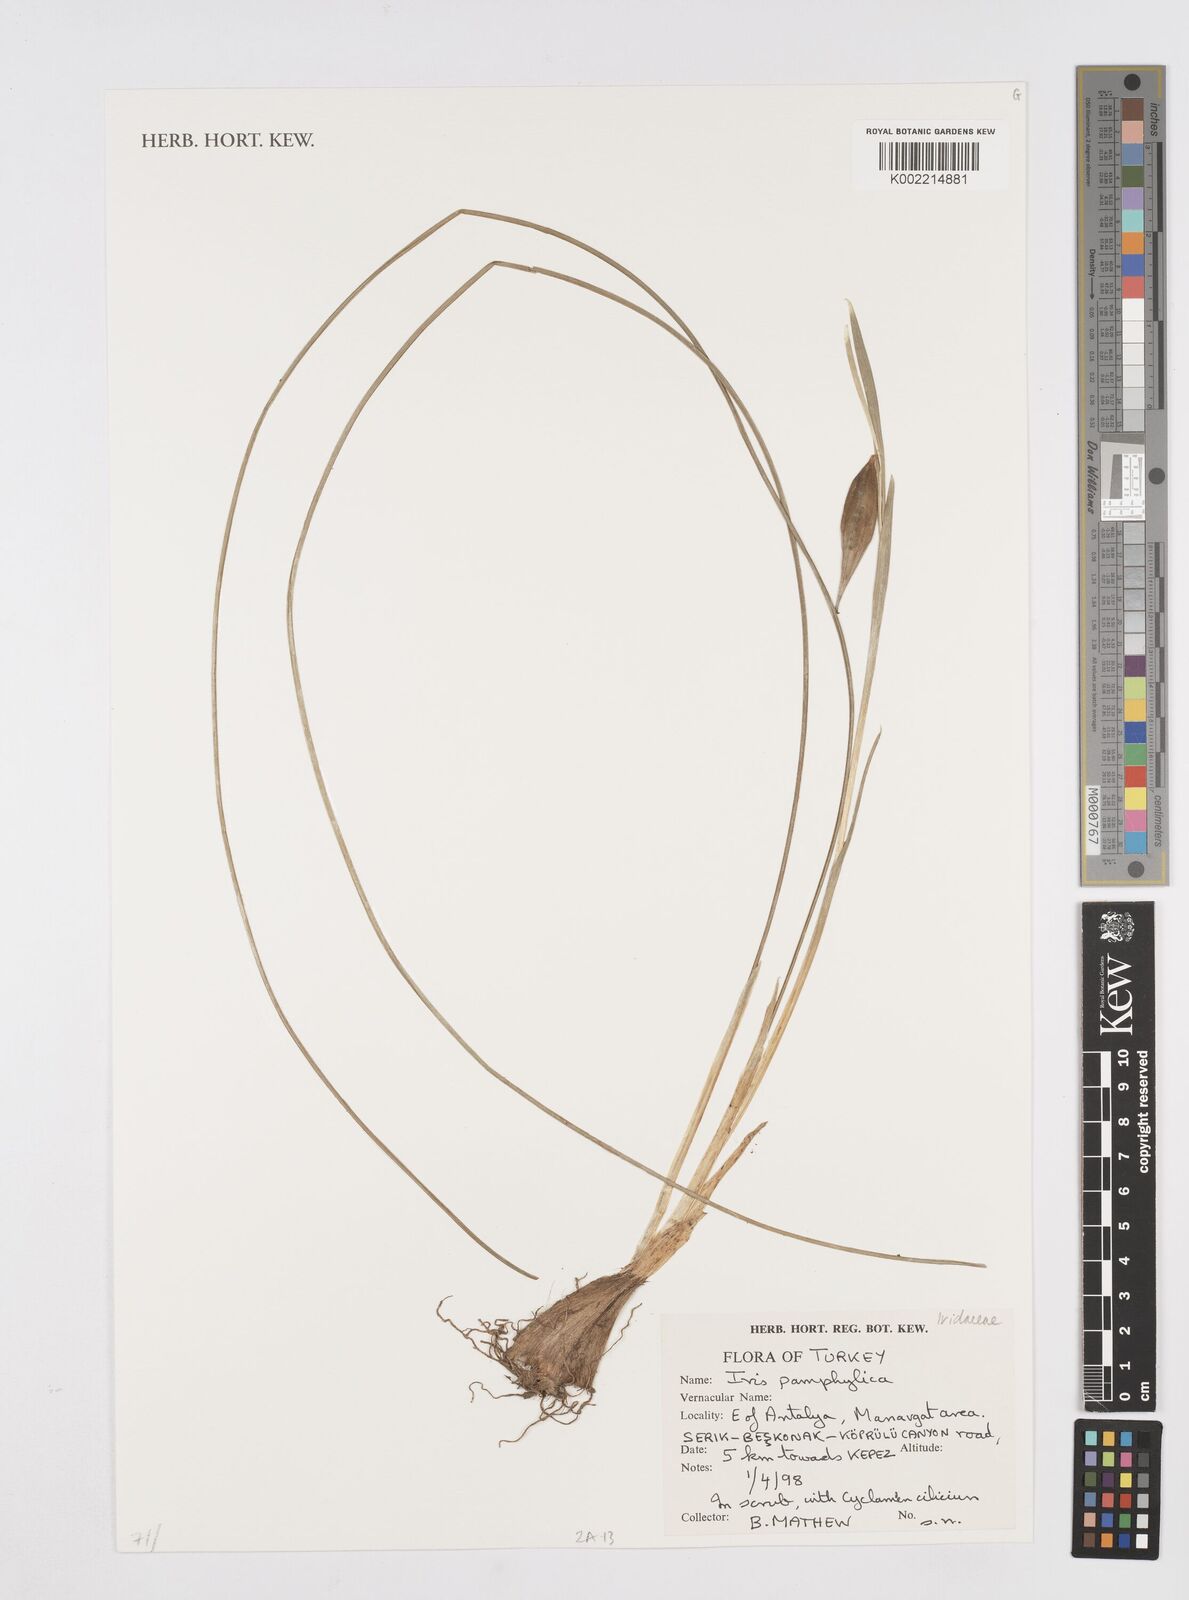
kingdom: Plantae
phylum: Tracheophyta
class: Liliopsida
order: Asparagales
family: Iridaceae
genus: Iris
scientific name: Iris pamphylica
